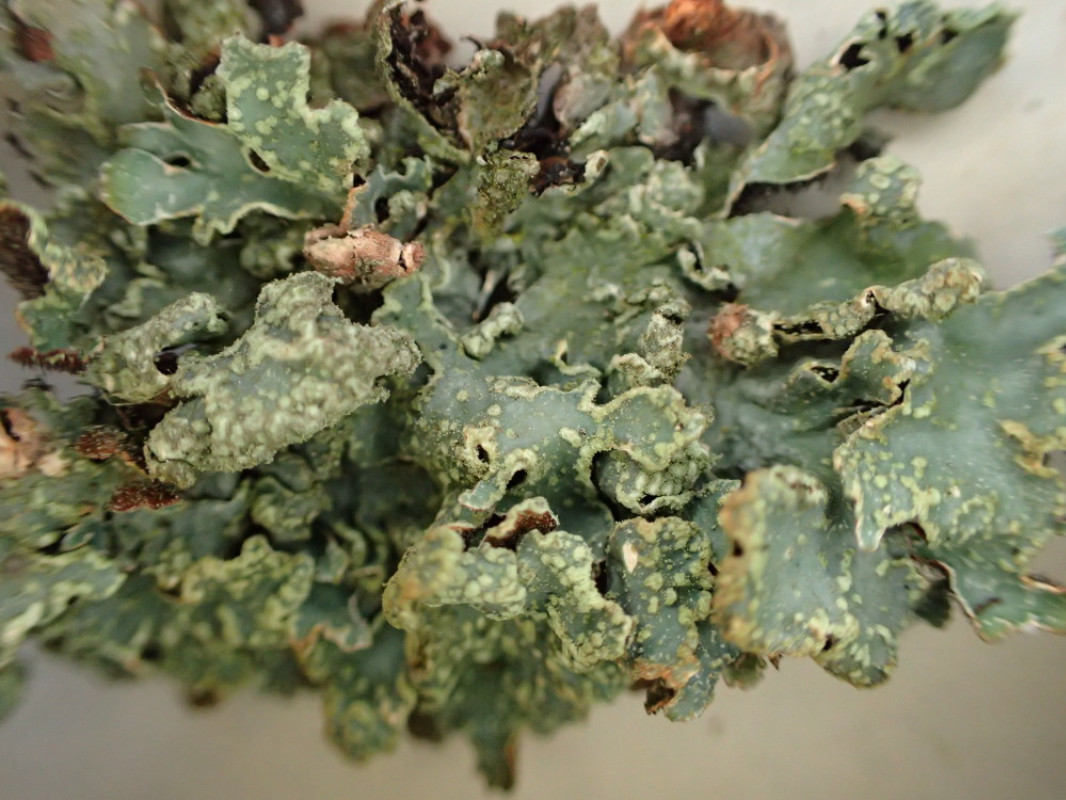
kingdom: Fungi
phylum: Ascomycota
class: Lecanoromycetes
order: Lecanorales
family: Parmeliaceae
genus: Parmelia
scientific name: Parmelia sulcata
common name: rynket skållav
